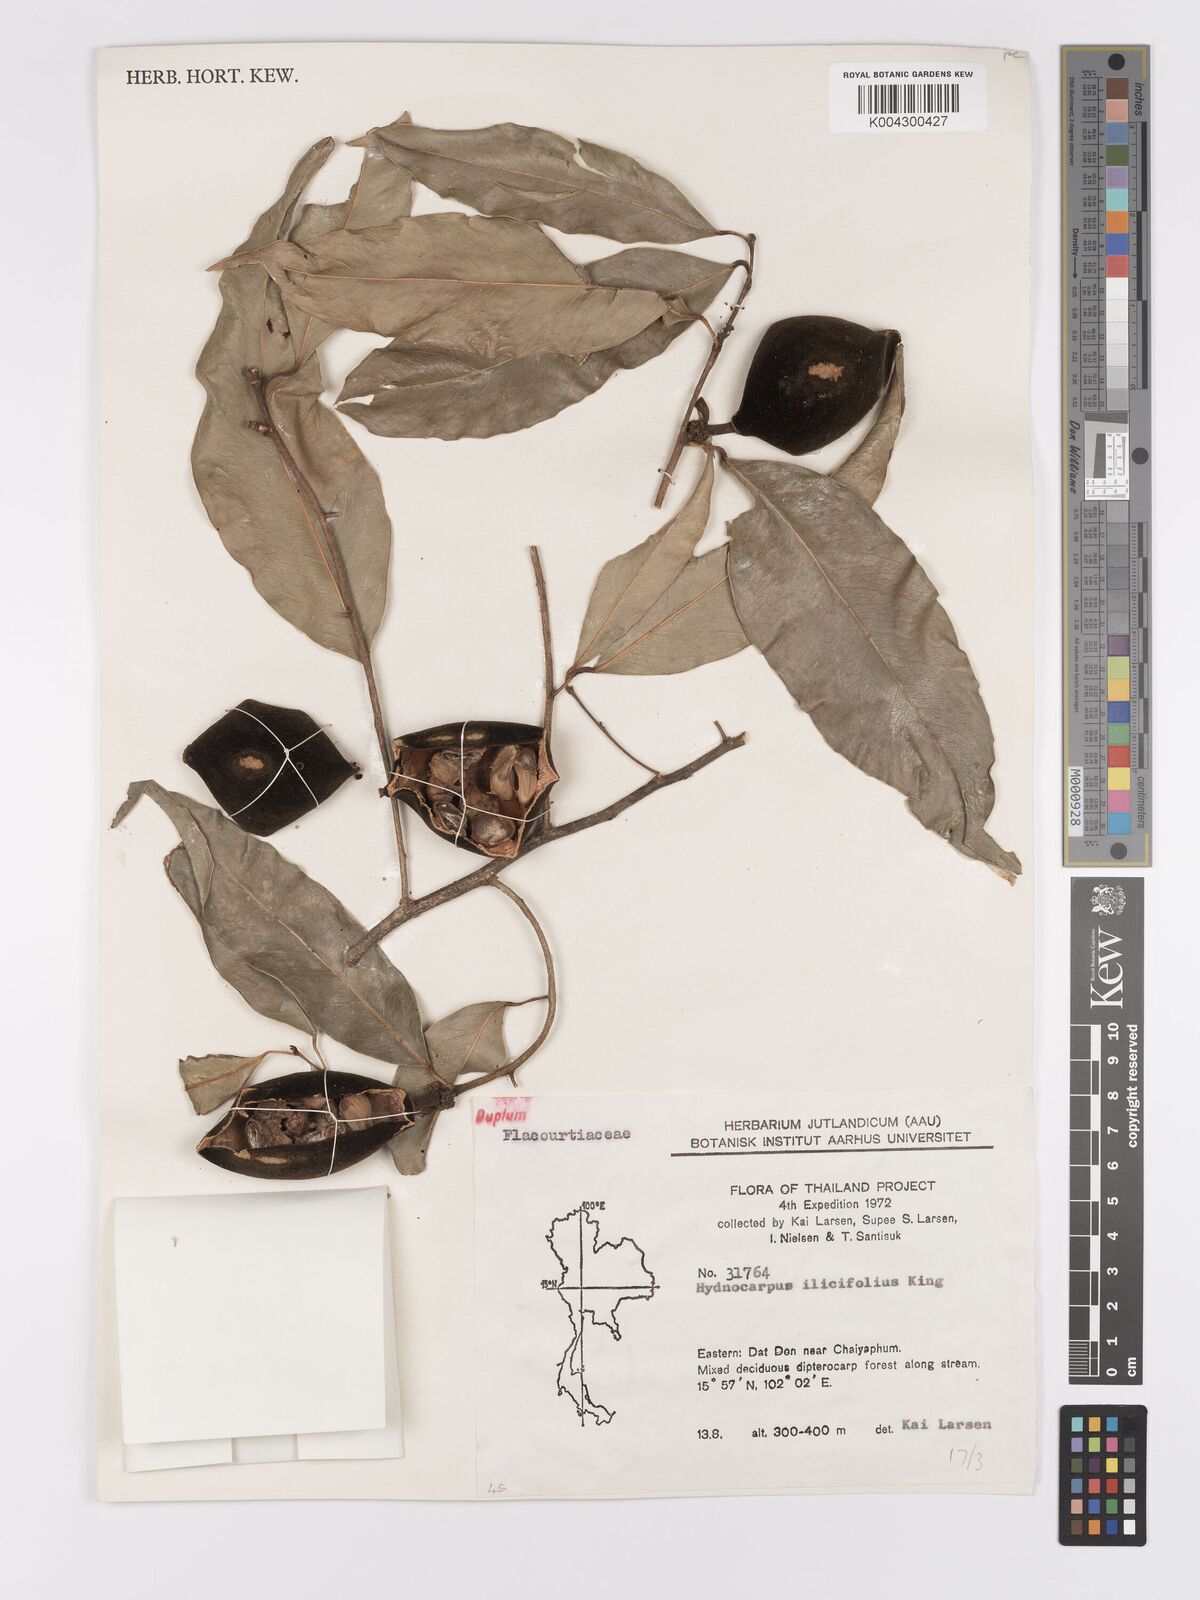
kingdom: Plantae
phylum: Tracheophyta
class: Magnoliopsida
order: Malpighiales
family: Achariaceae
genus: Hydnocarpus
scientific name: Hydnocarpus ilicifolius
